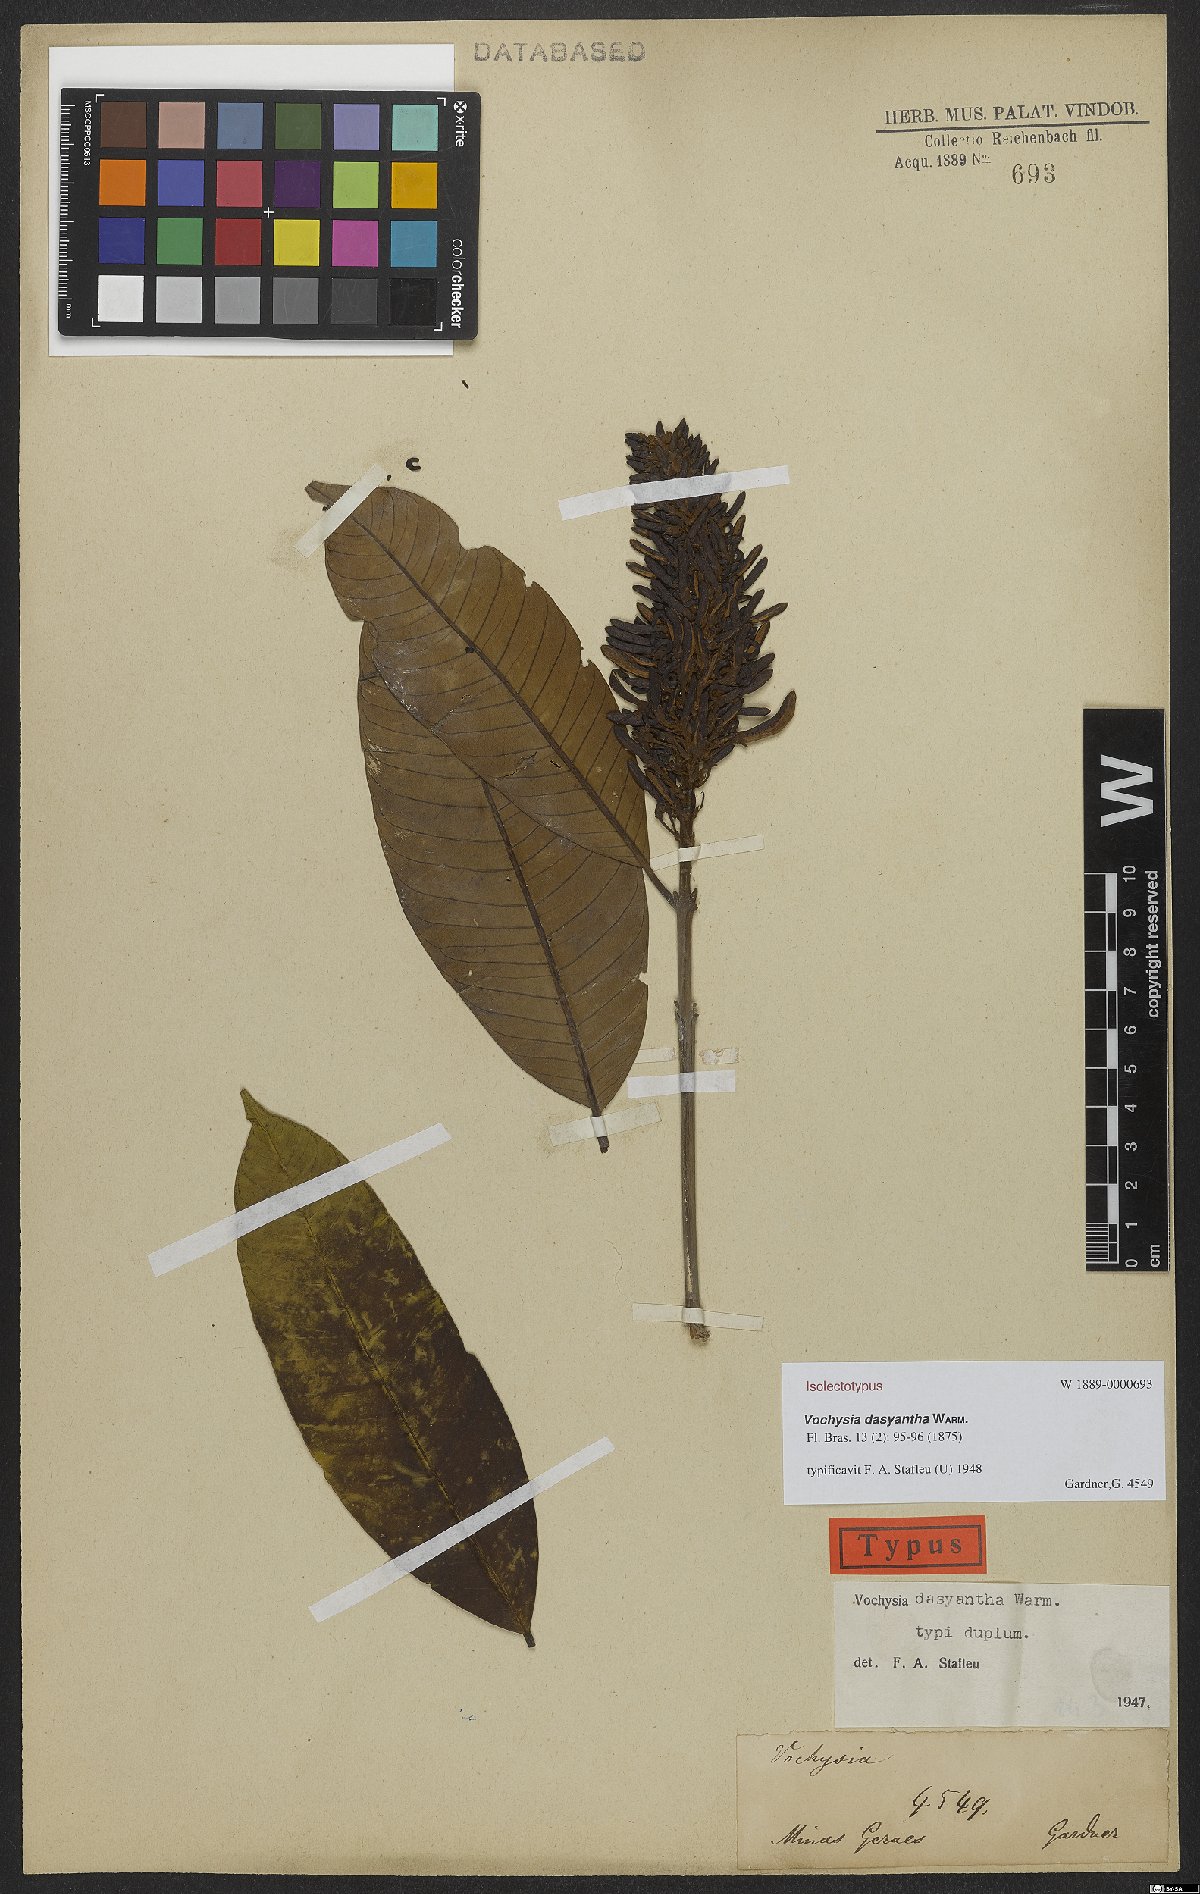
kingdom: Plantae
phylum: Tracheophyta
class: Magnoliopsida
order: Myrtales
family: Vochysiaceae
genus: Vochysia
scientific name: Vochysia dasyantha
